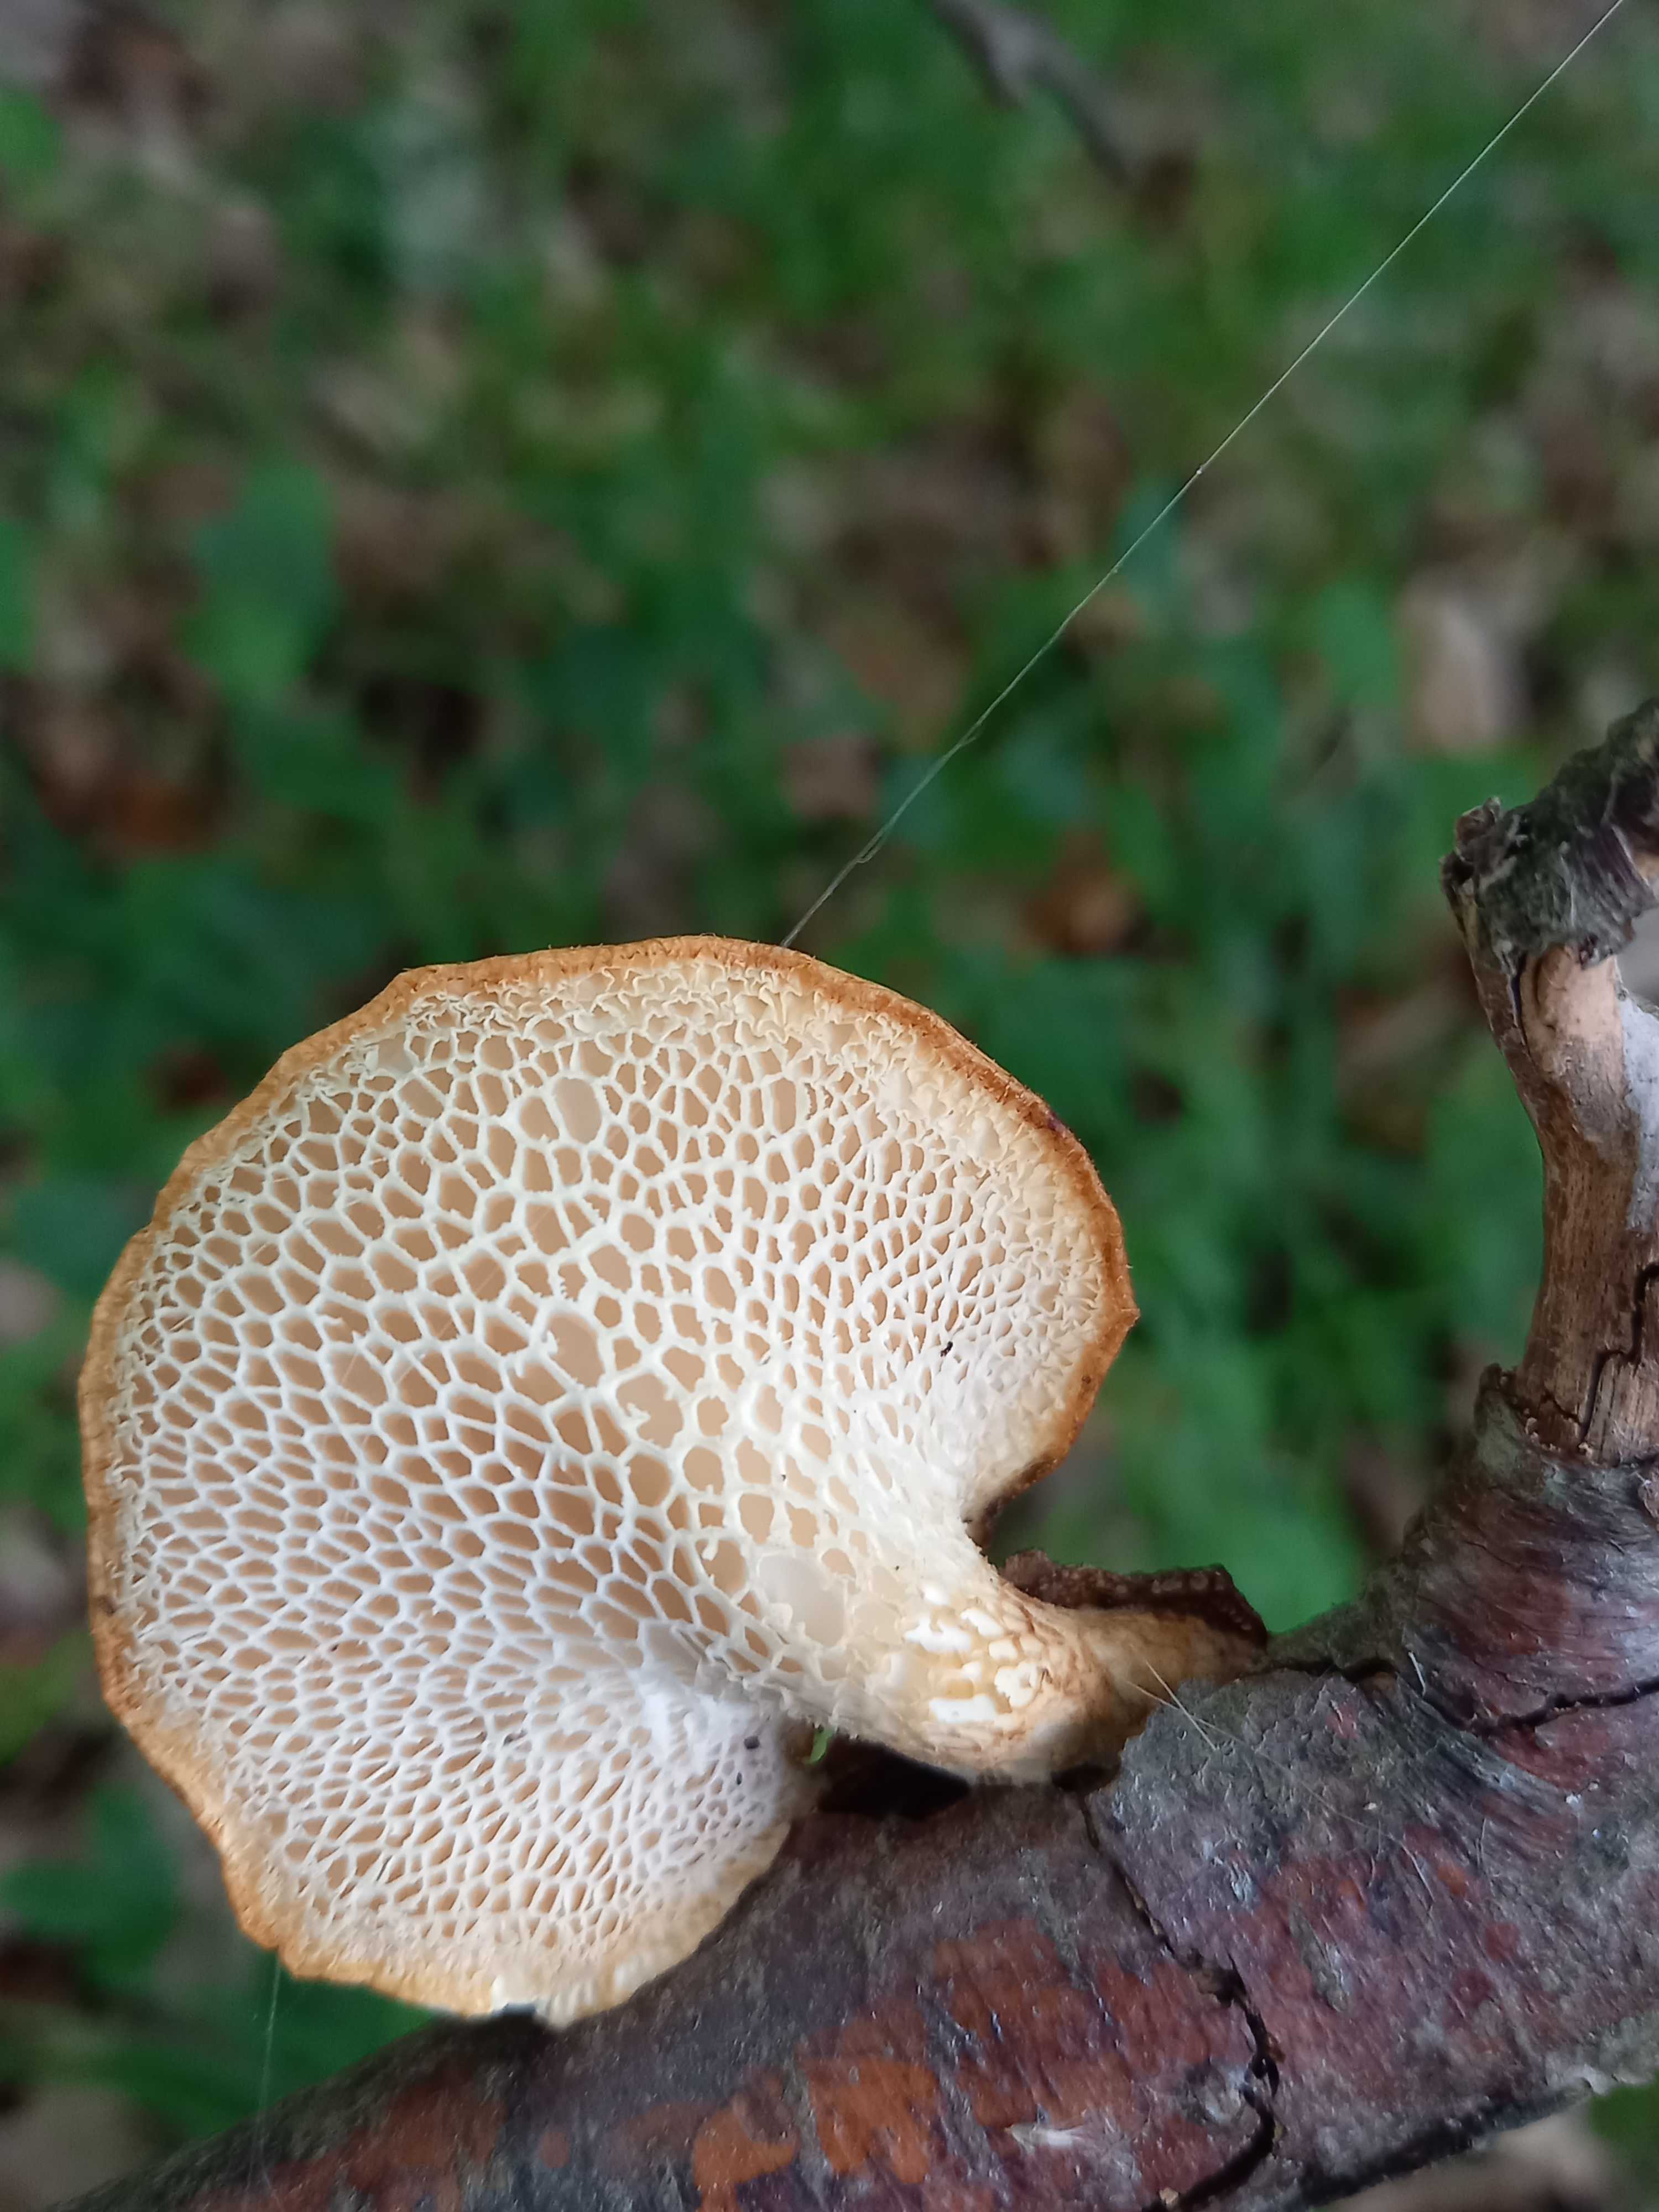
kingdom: Fungi
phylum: Basidiomycota
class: Agaricomycetes
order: Polyporales
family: Polyporaceae
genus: Polyporus
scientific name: Polyporus tuberaster
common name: knoldet stilkporesvamp
